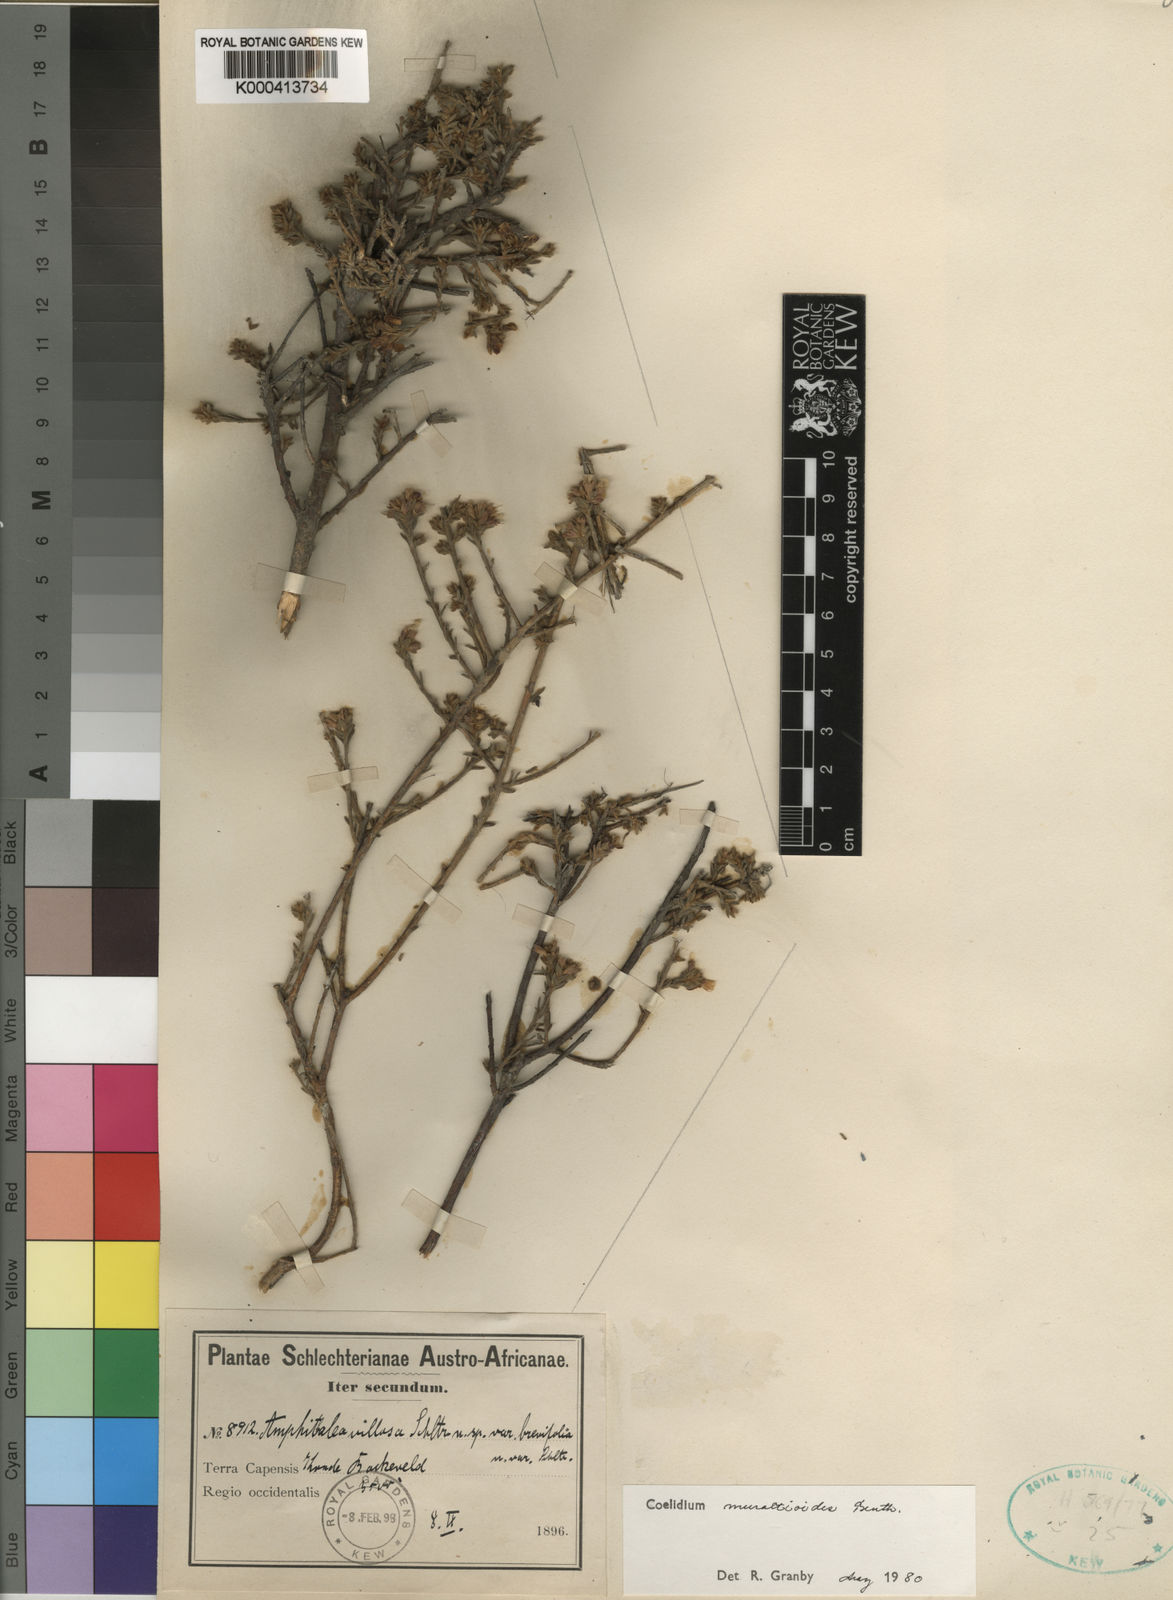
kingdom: Plantae
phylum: Tracheophyta
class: Magnoliopsida
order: Fabales
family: Fabaceae
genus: Amphithalea
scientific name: Amphithalea muraltioides
